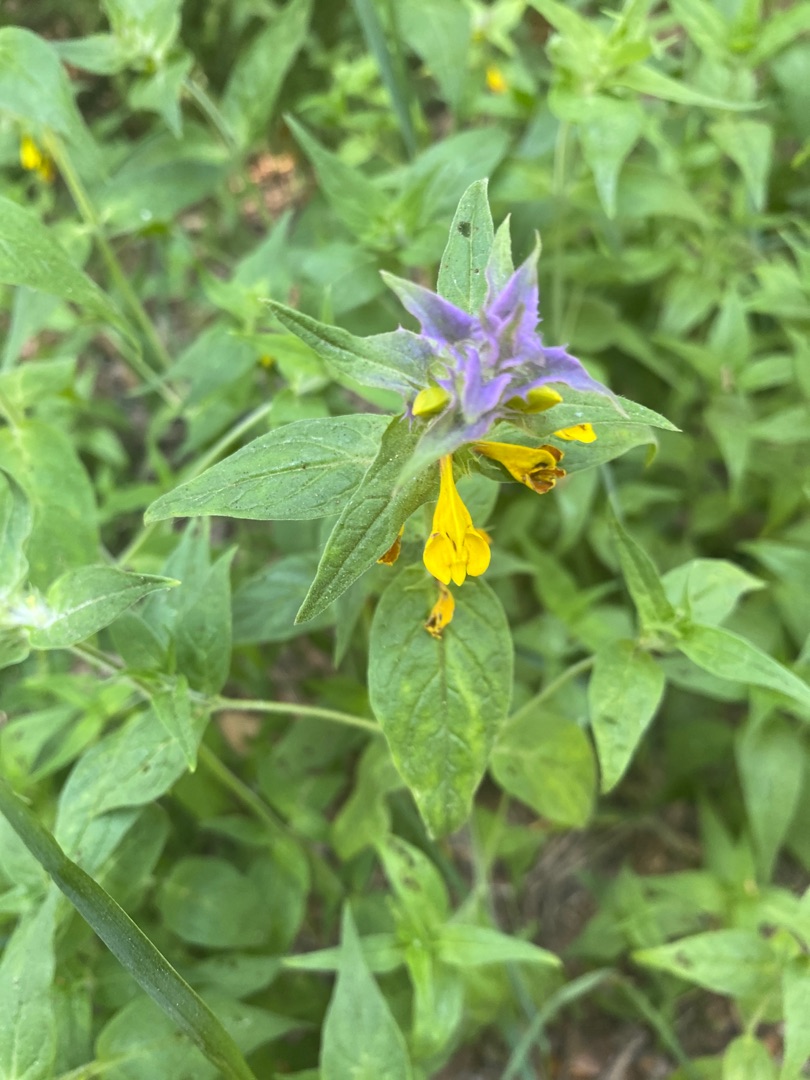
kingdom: Plantae
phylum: Tracheophyta
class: Magnoliopsida
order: Lamiales
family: Orobanchaceae
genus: Melampyrum
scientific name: Melampyrum nemorosum
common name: Blåtoppet kohvede
